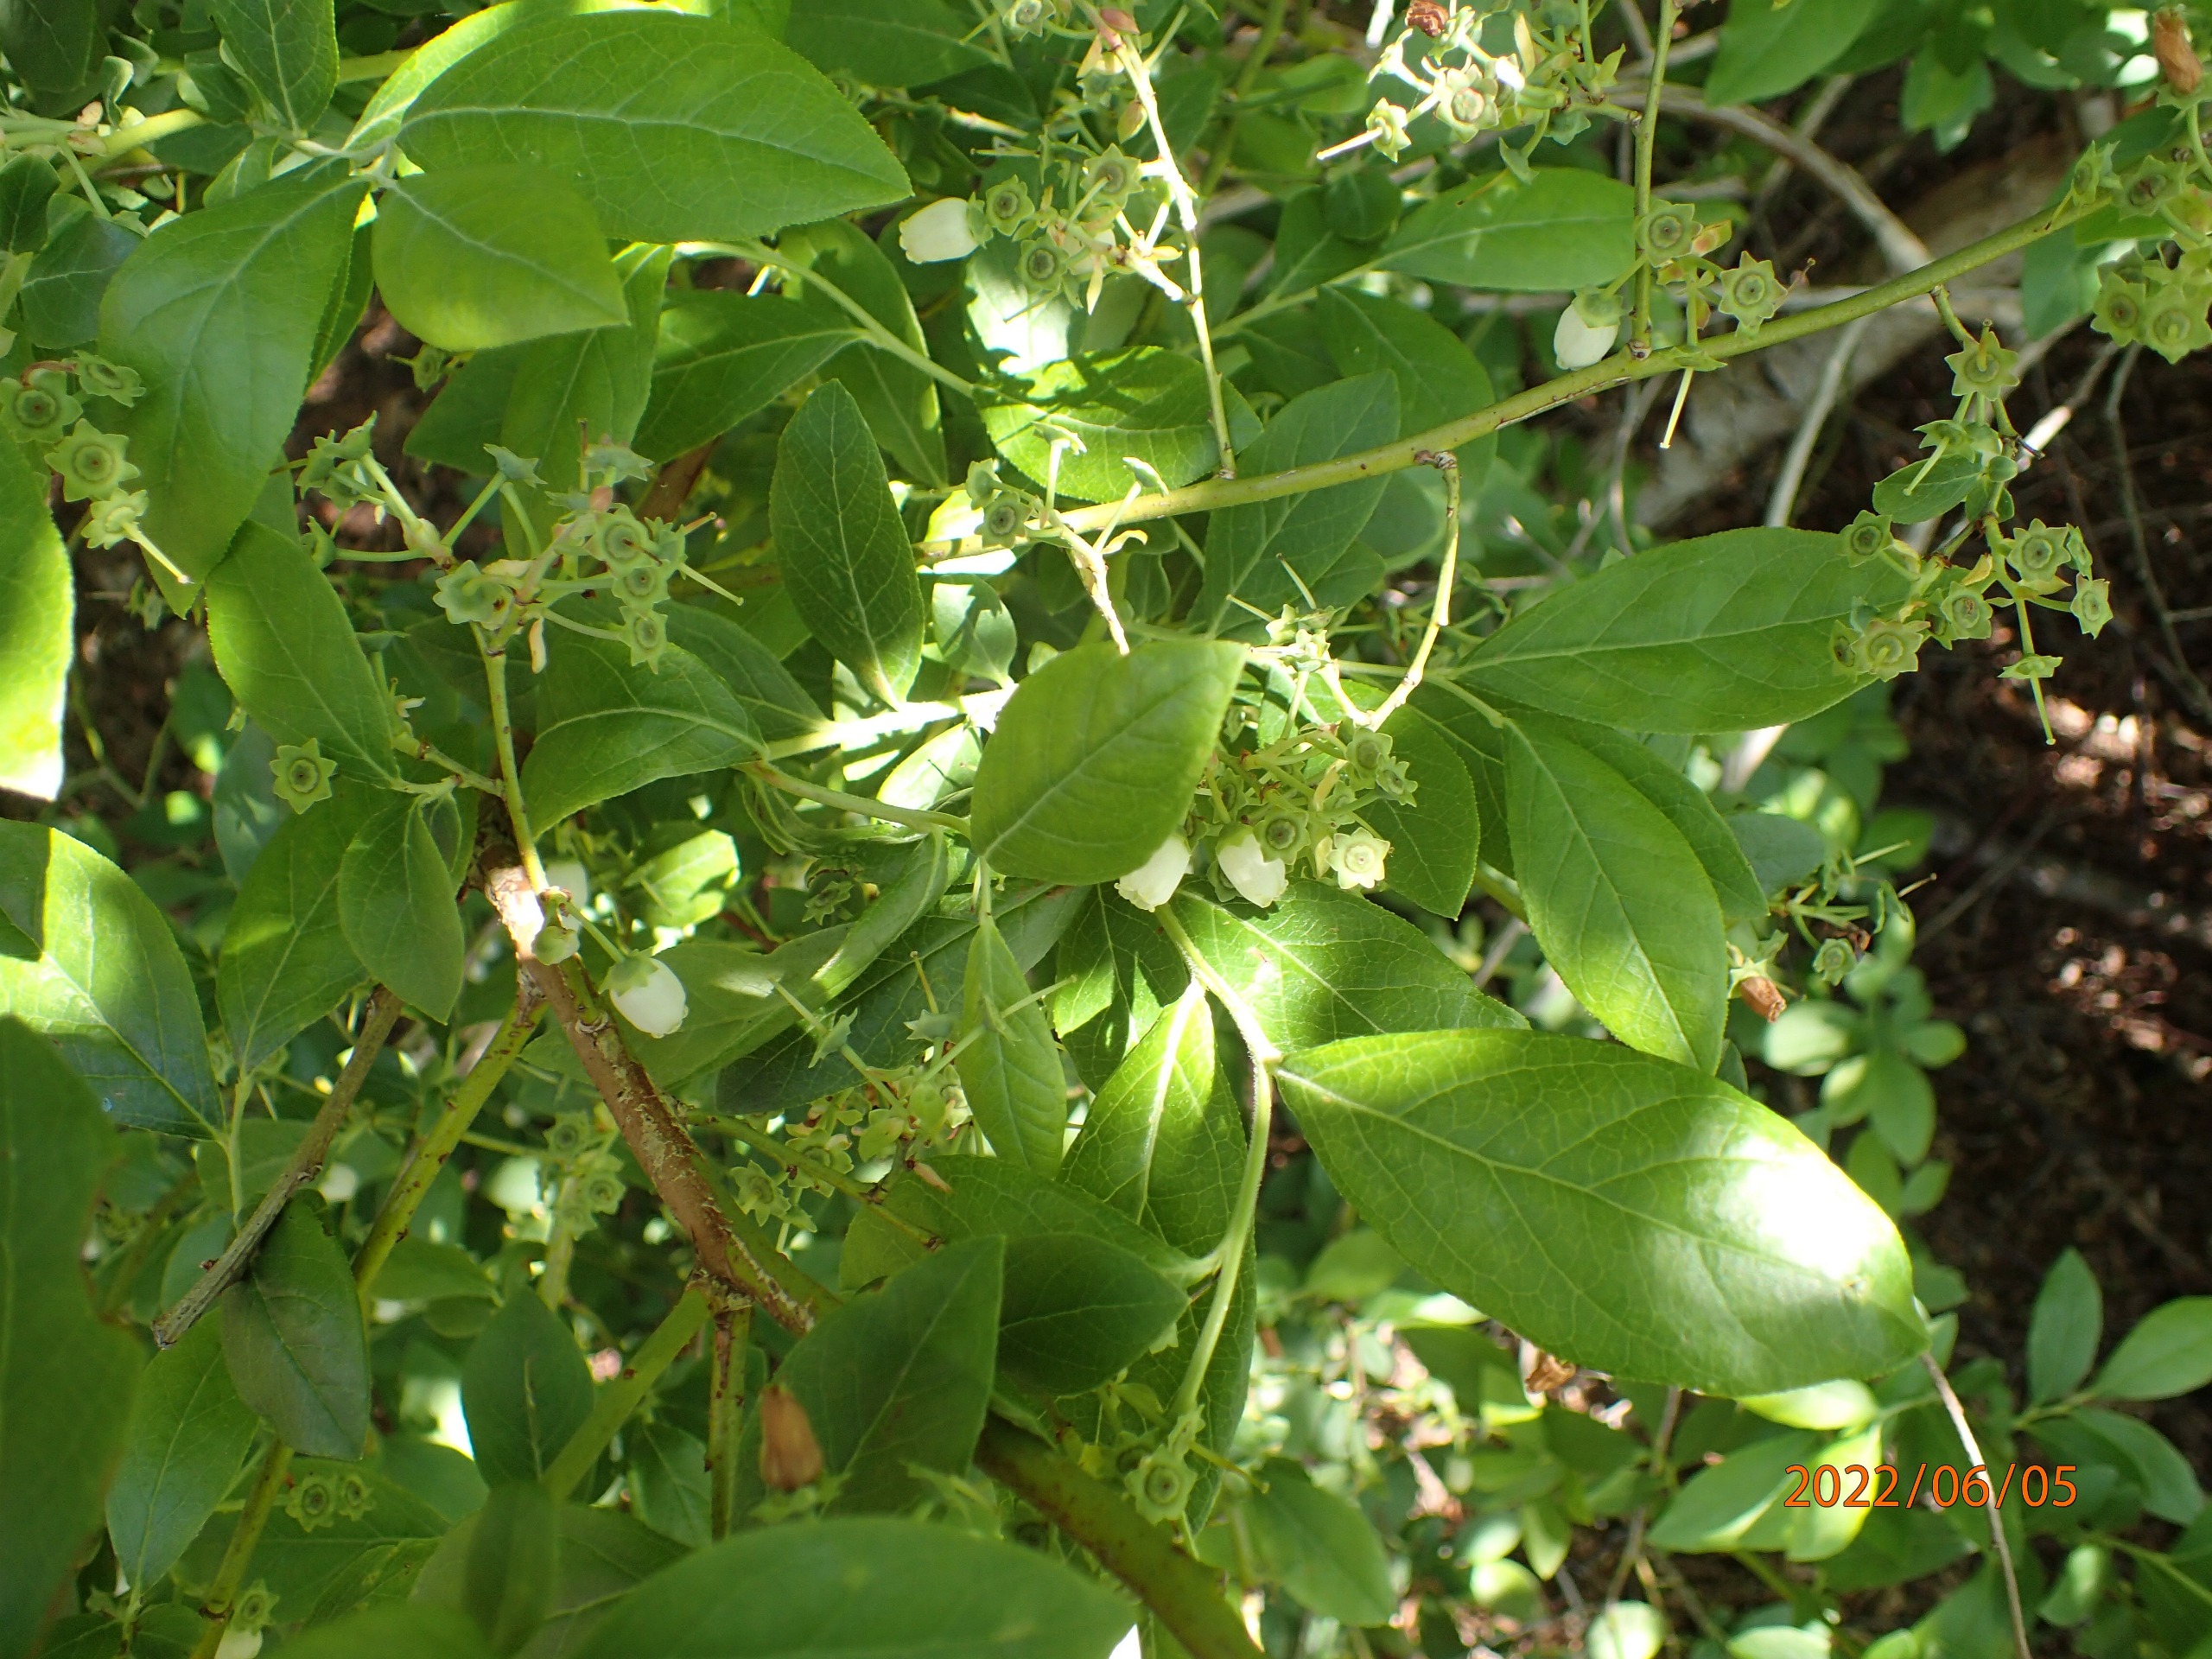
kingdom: Plantae
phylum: Tracheophyta
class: Magnoliopsida
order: Ericales
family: Ericaceae
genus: Vaccinium
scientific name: Vaccinium corymbosum
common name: Amerikansk blåbær
